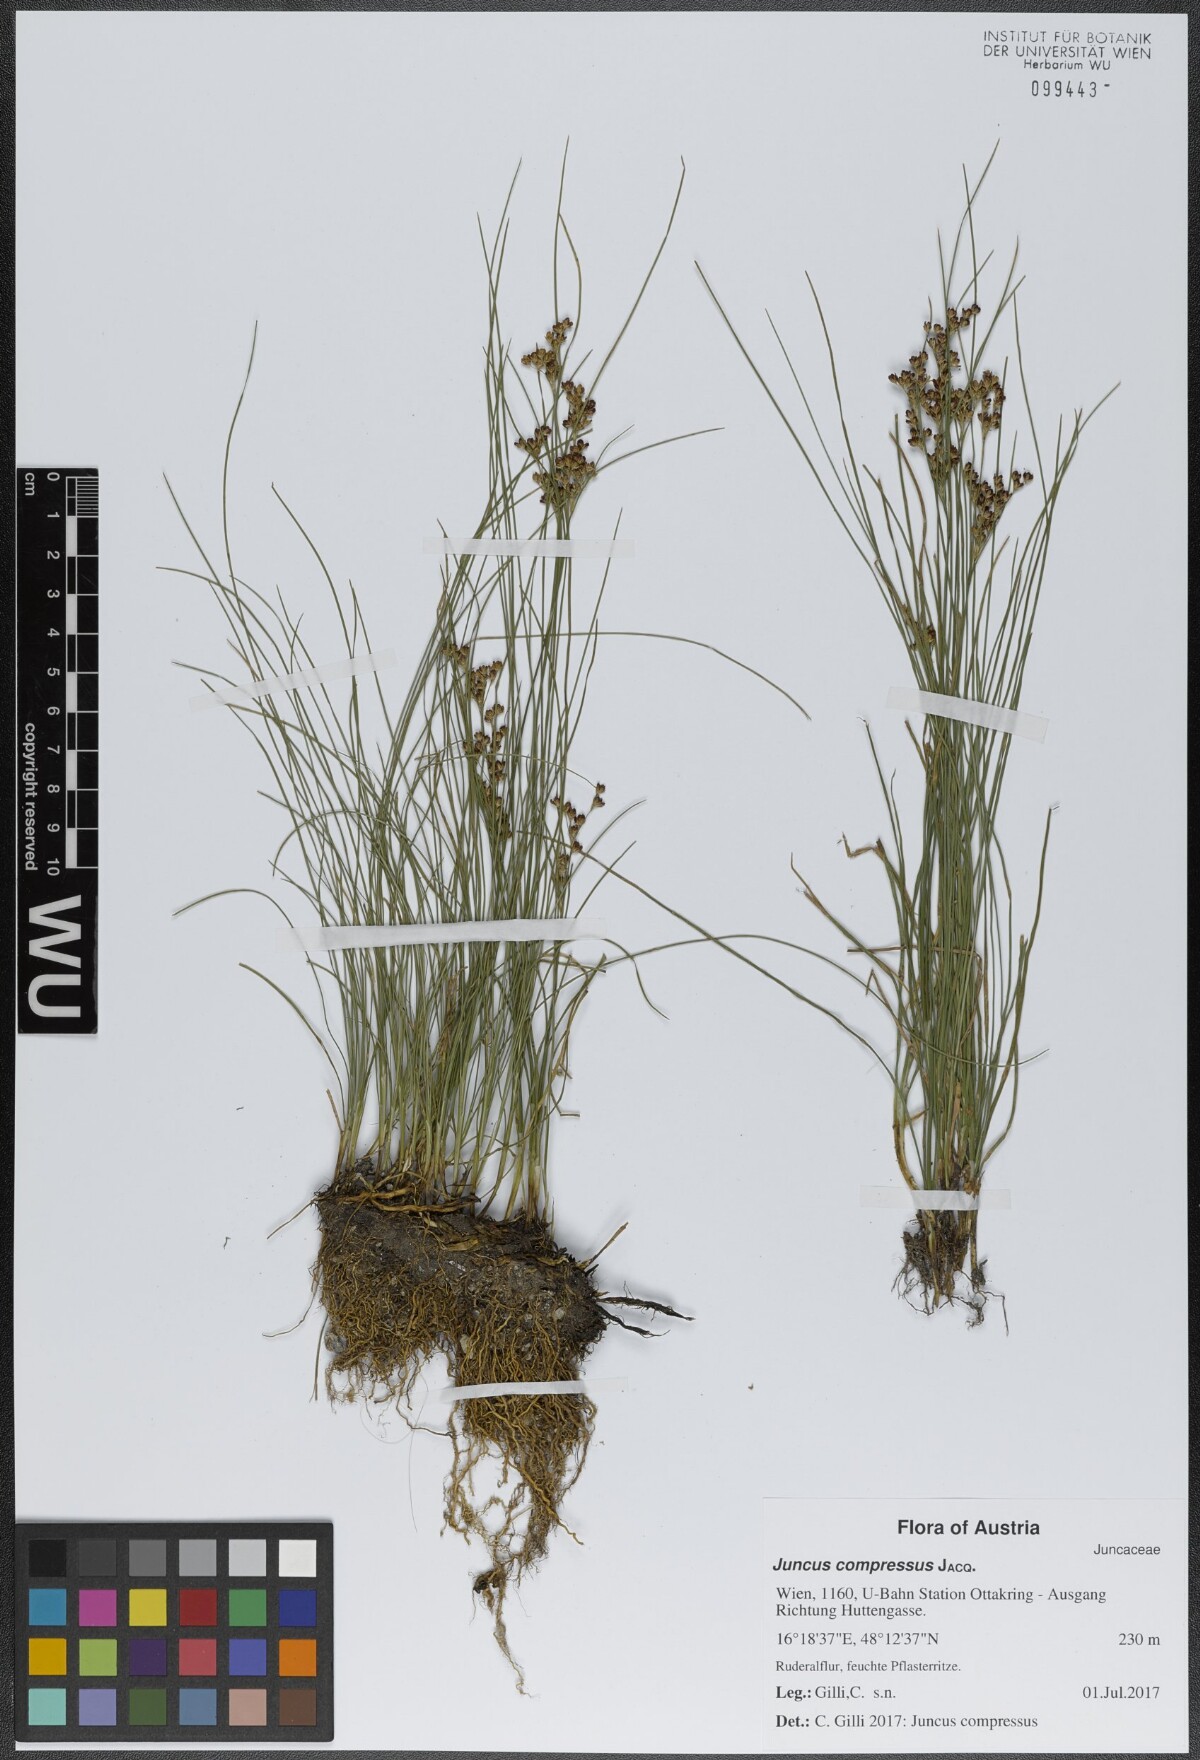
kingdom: Plantae
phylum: Tracheophyta
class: Liliopsida
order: Poales
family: Juncaceae
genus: Juncus
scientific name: Juncus compressus
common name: Round-fruited rush
